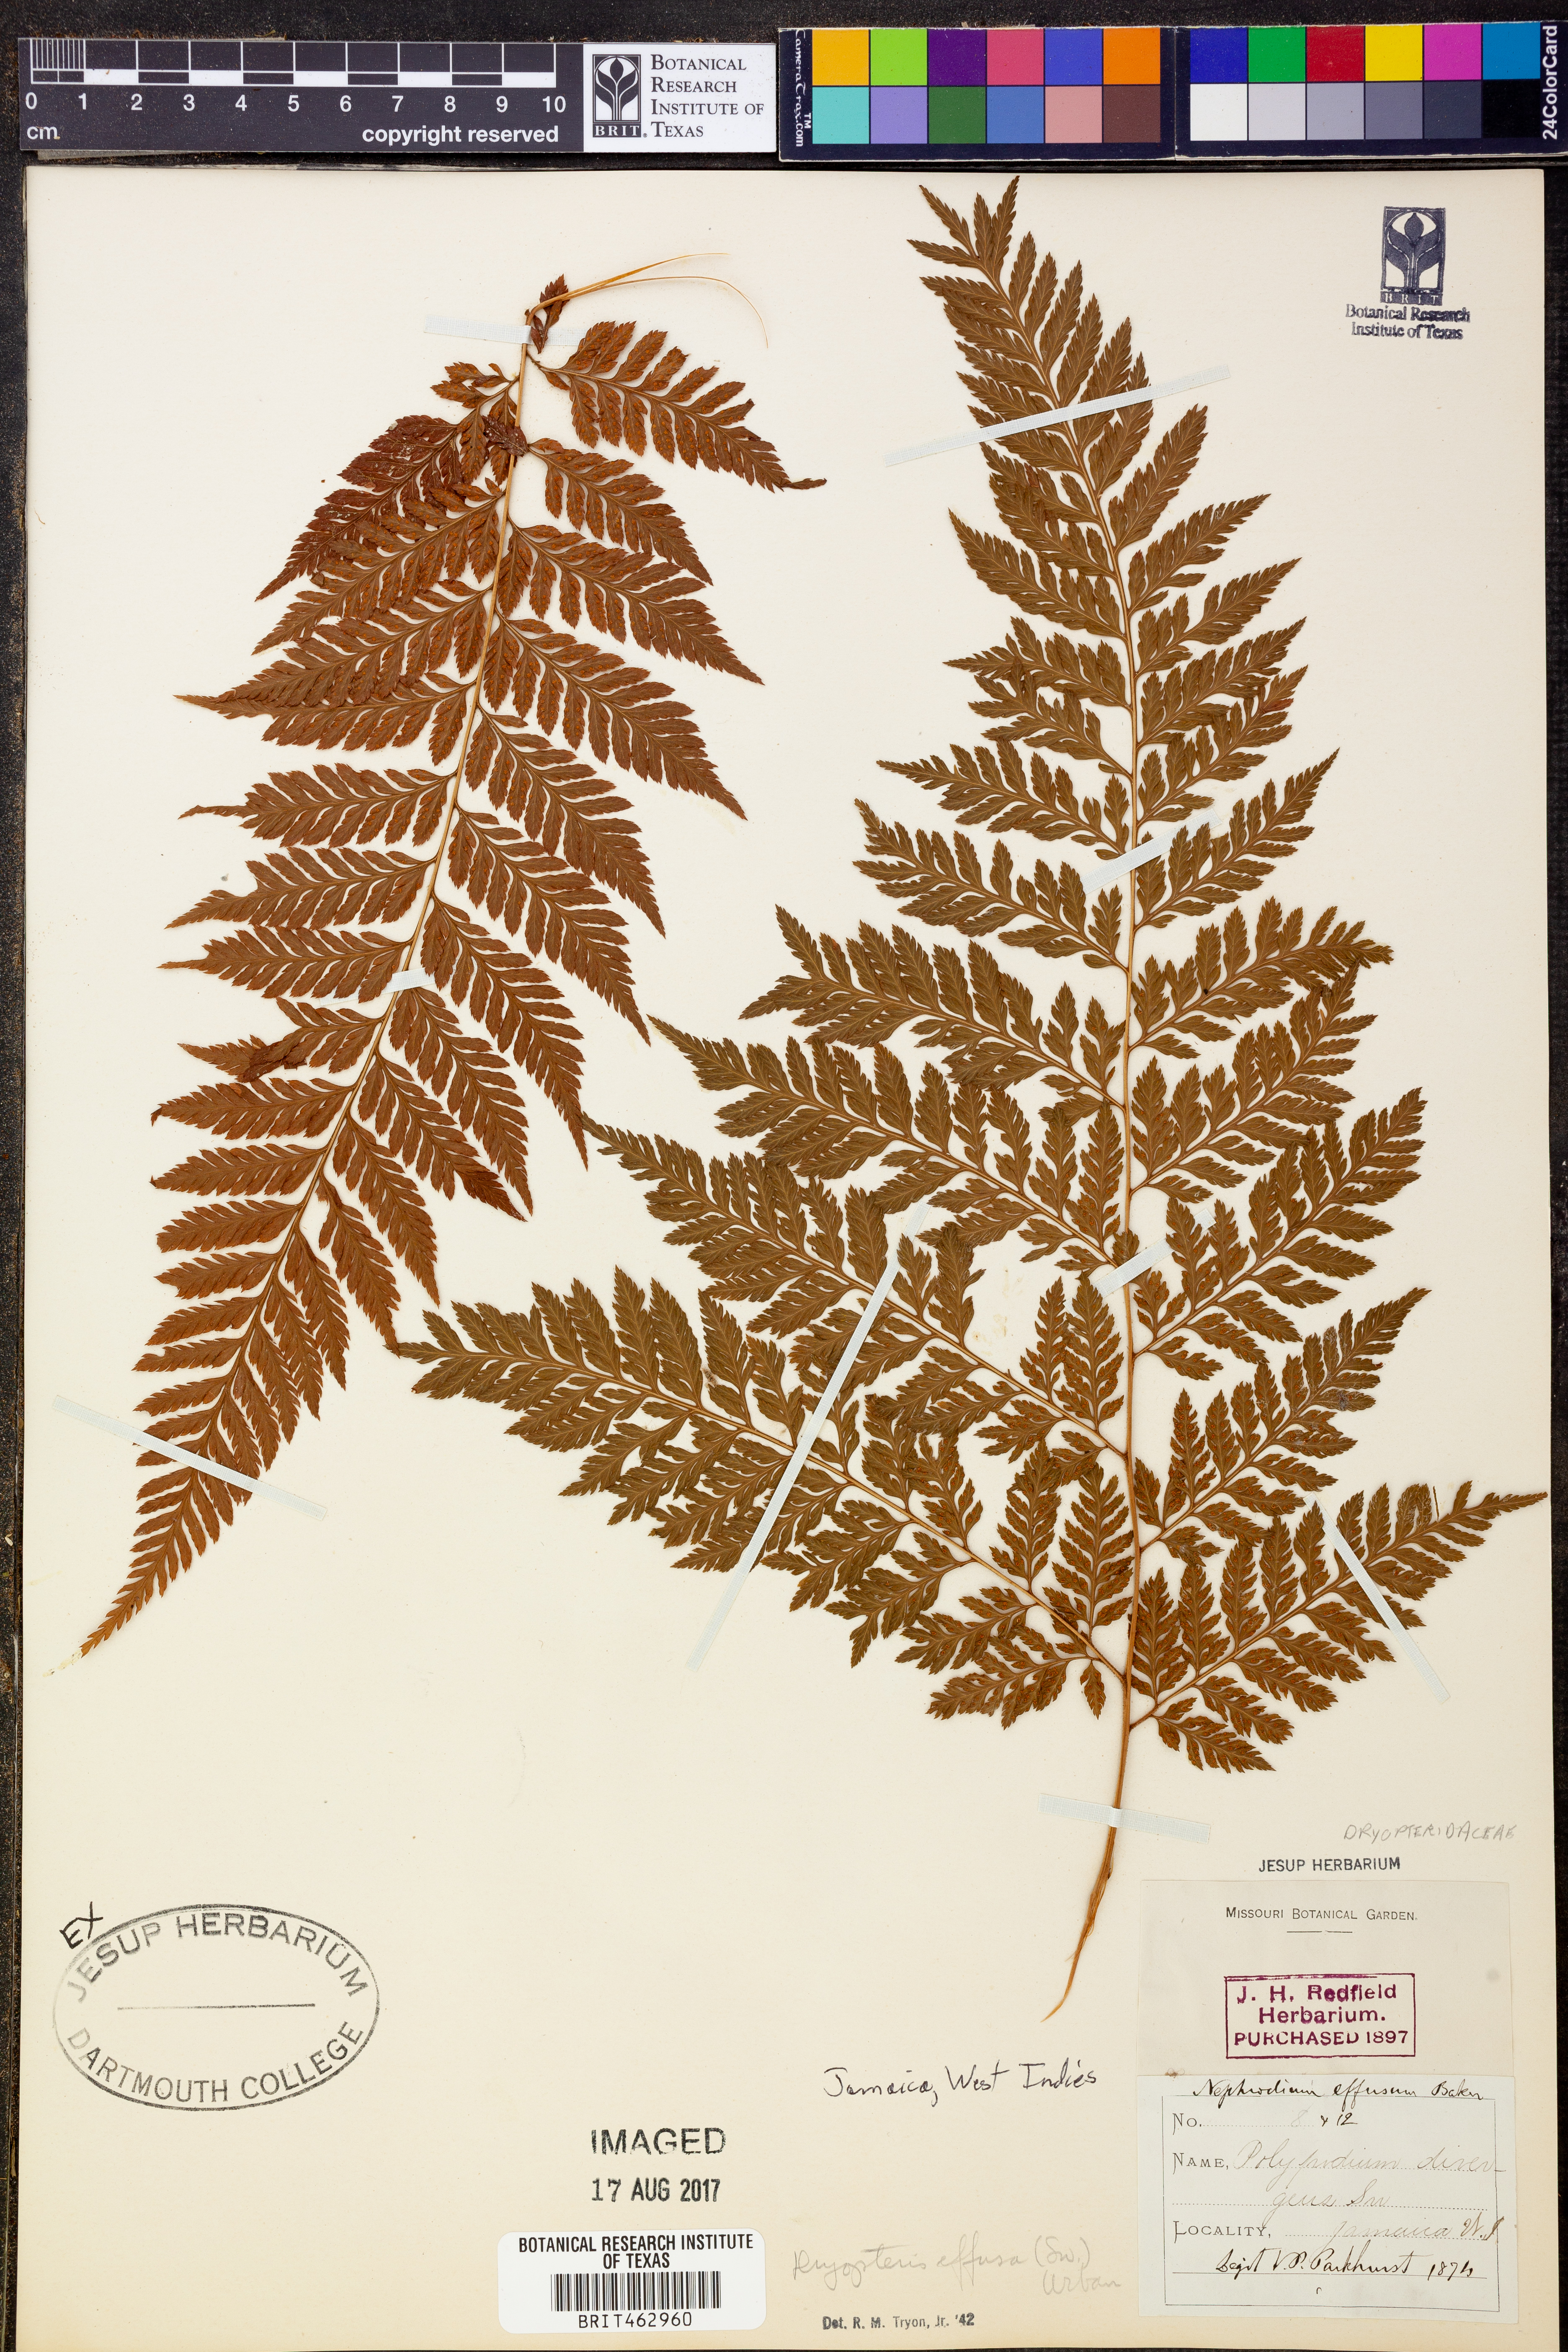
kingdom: Plantae
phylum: Tracheophyta
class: Polypodiopsida
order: Polypodiales
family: Dryopteridaceae
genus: Parapolystichum
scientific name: Parapolystichum effusum
